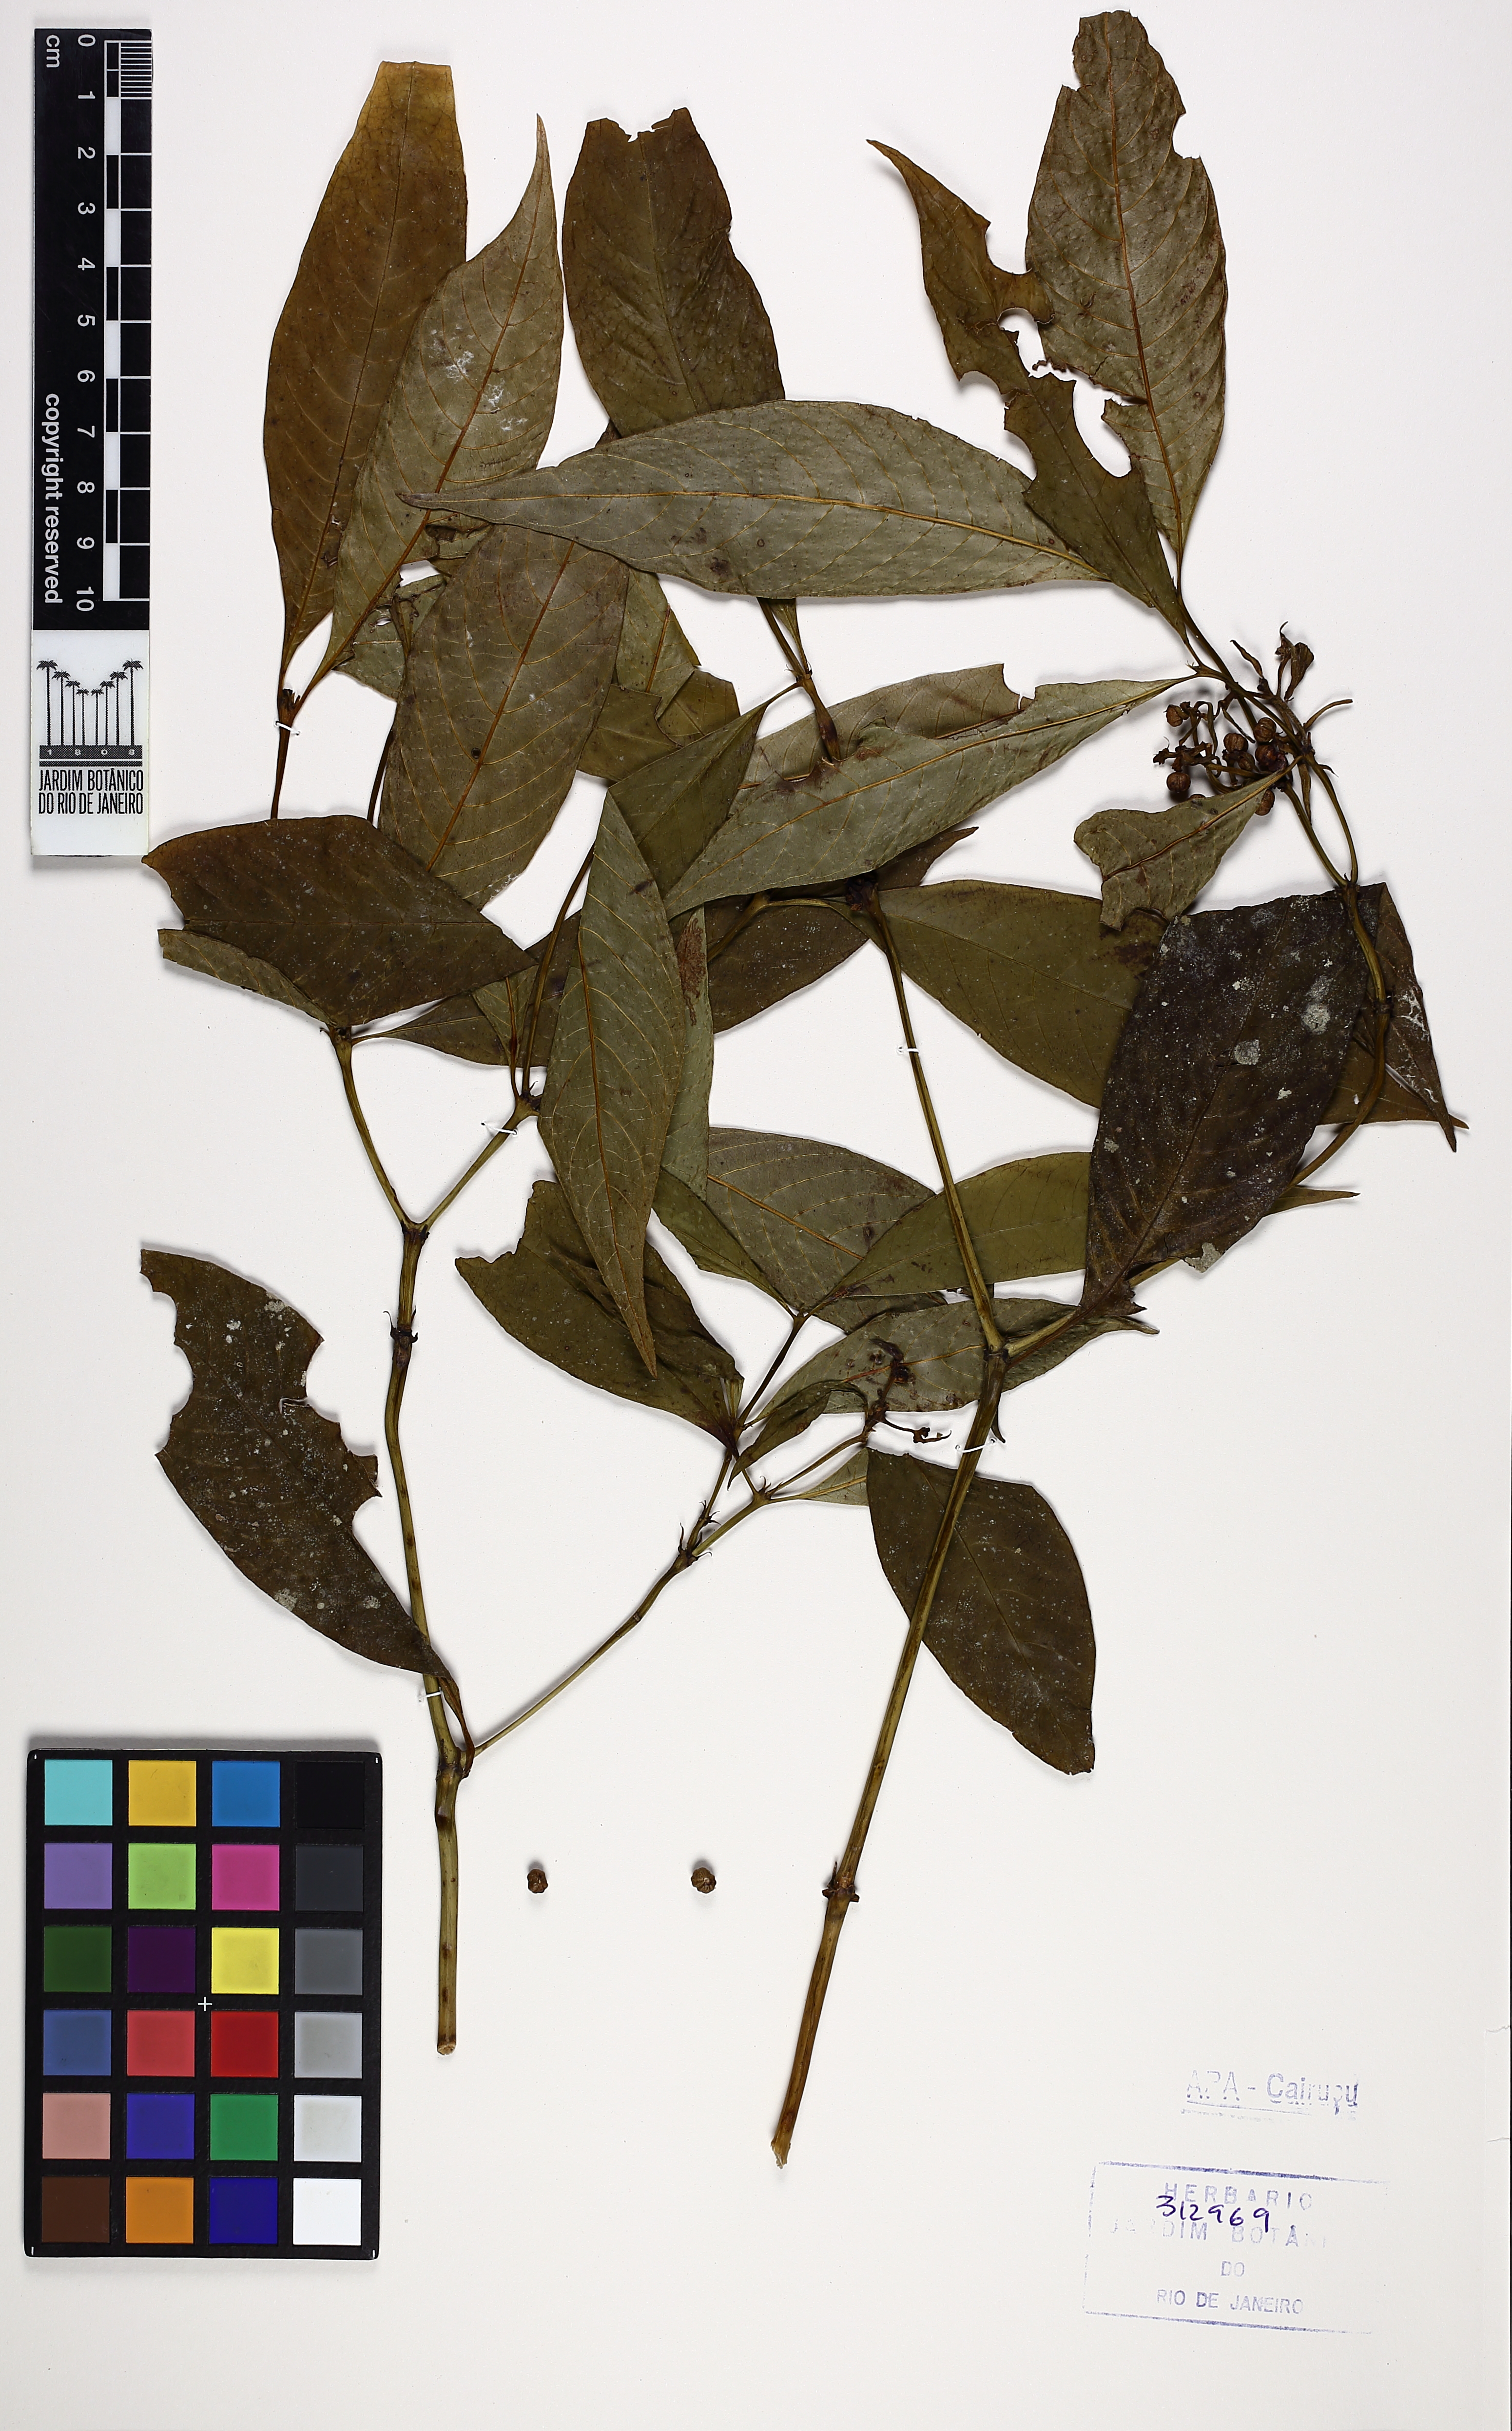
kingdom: Plantae
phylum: Tracheophyta
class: Magnoliopsida
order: Gentianales
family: Rubiaceae
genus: Palicourea
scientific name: Palicourea tenerior
